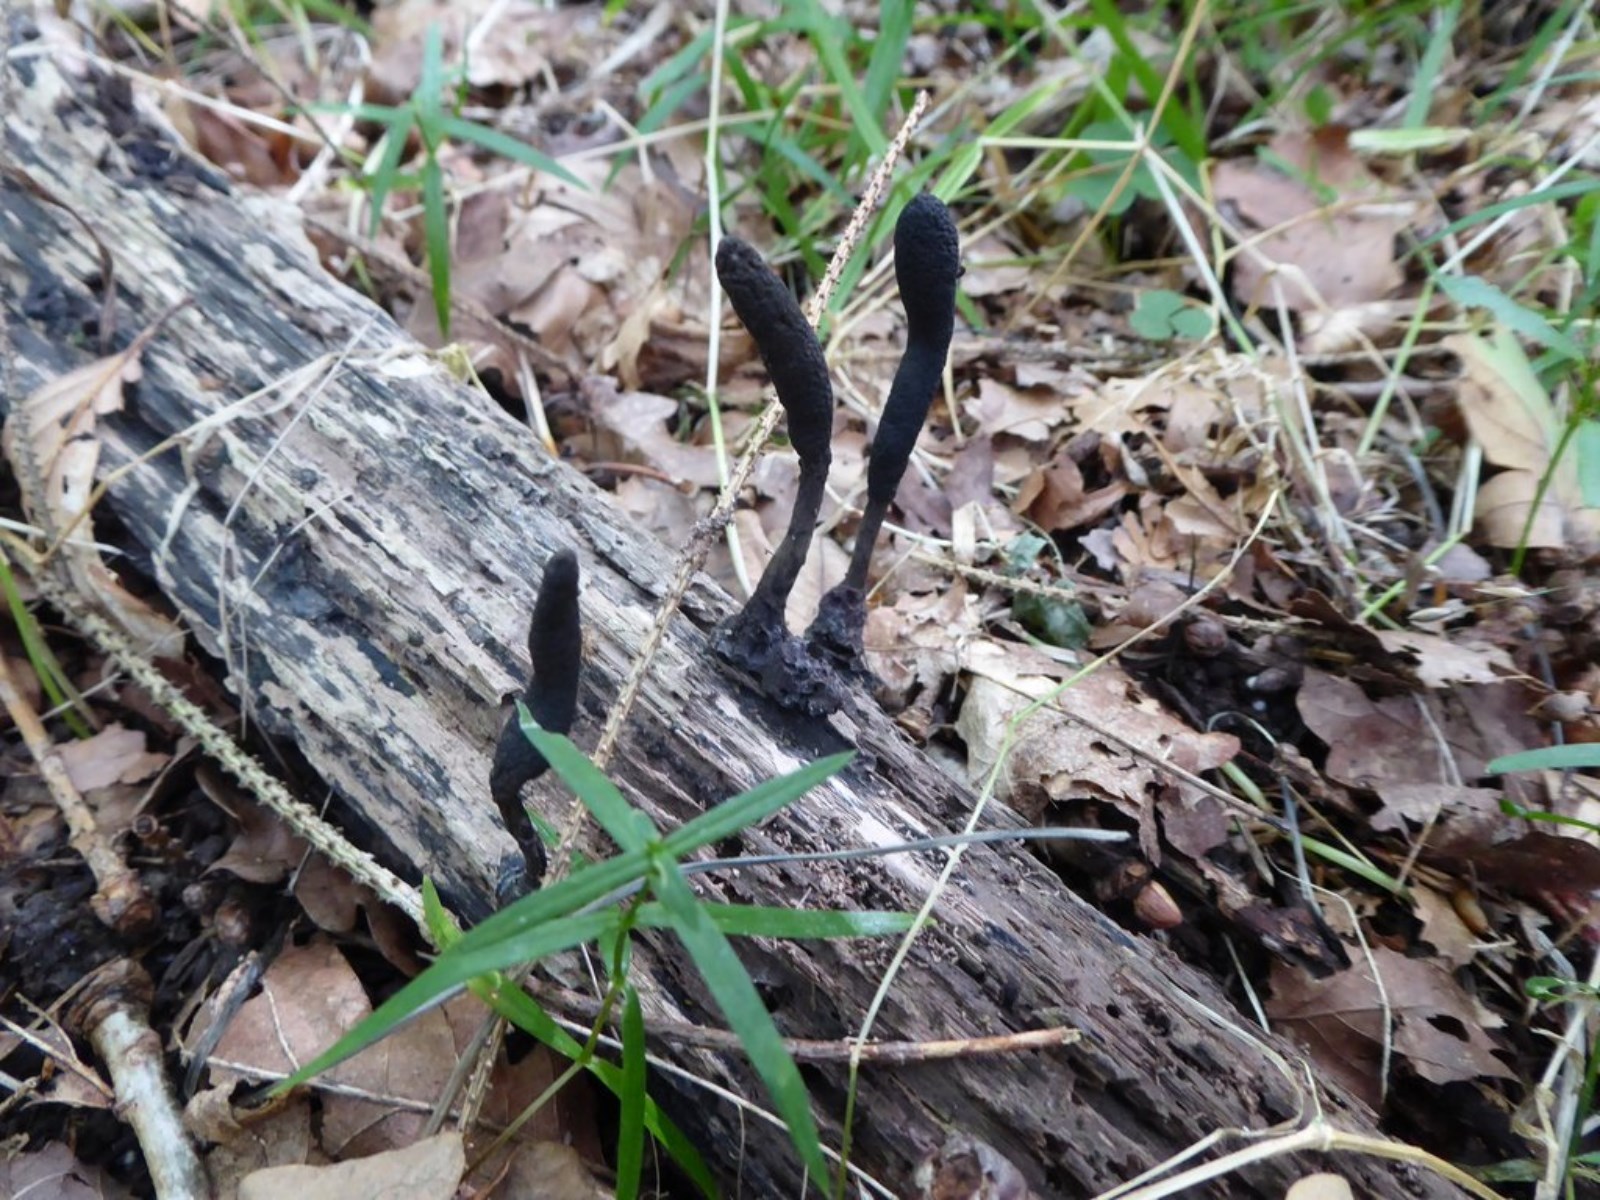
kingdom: Fungi
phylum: Ascomycota
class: Sordariomycetes
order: Xylariales
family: Xylariaceae
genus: Xylaria
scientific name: Xylaria longipes
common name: slank stødsvamp
